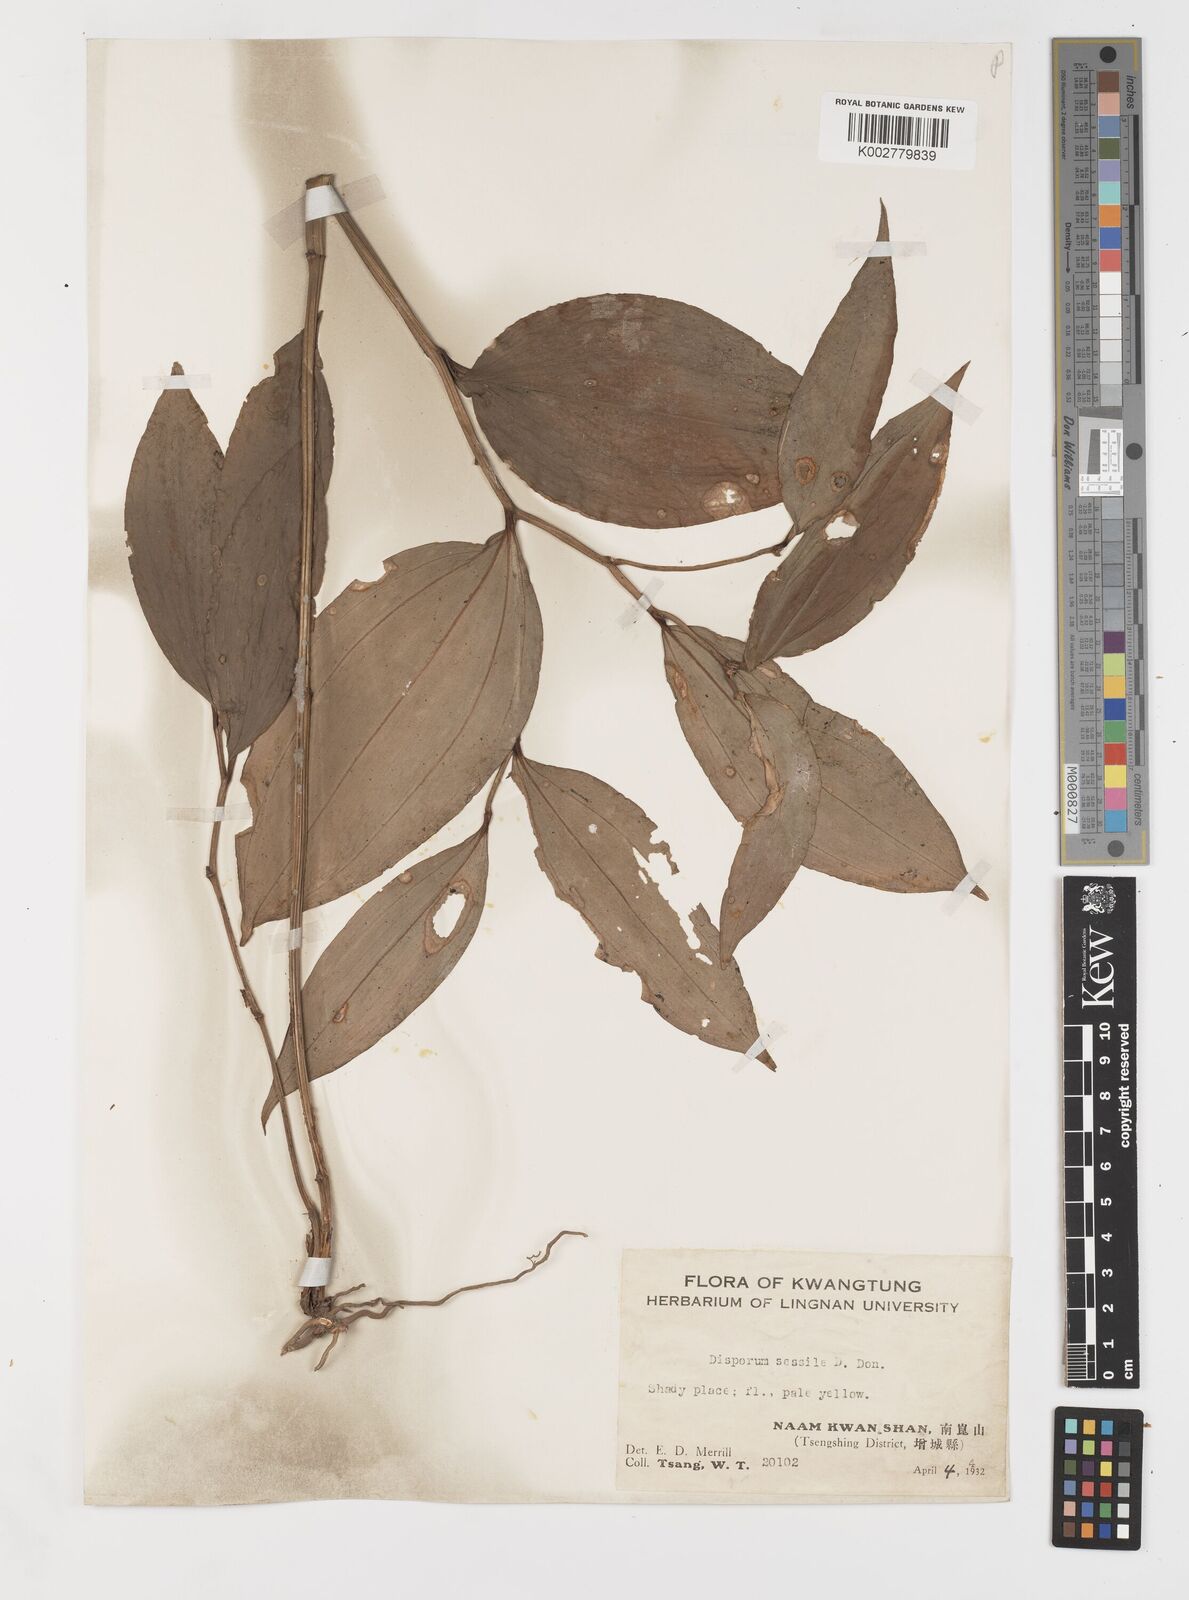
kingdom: Plantae
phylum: Tracheophyta
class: Liliopsida
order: Liliales
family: Colchicaceae
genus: Disporum
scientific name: Disporum sessile
